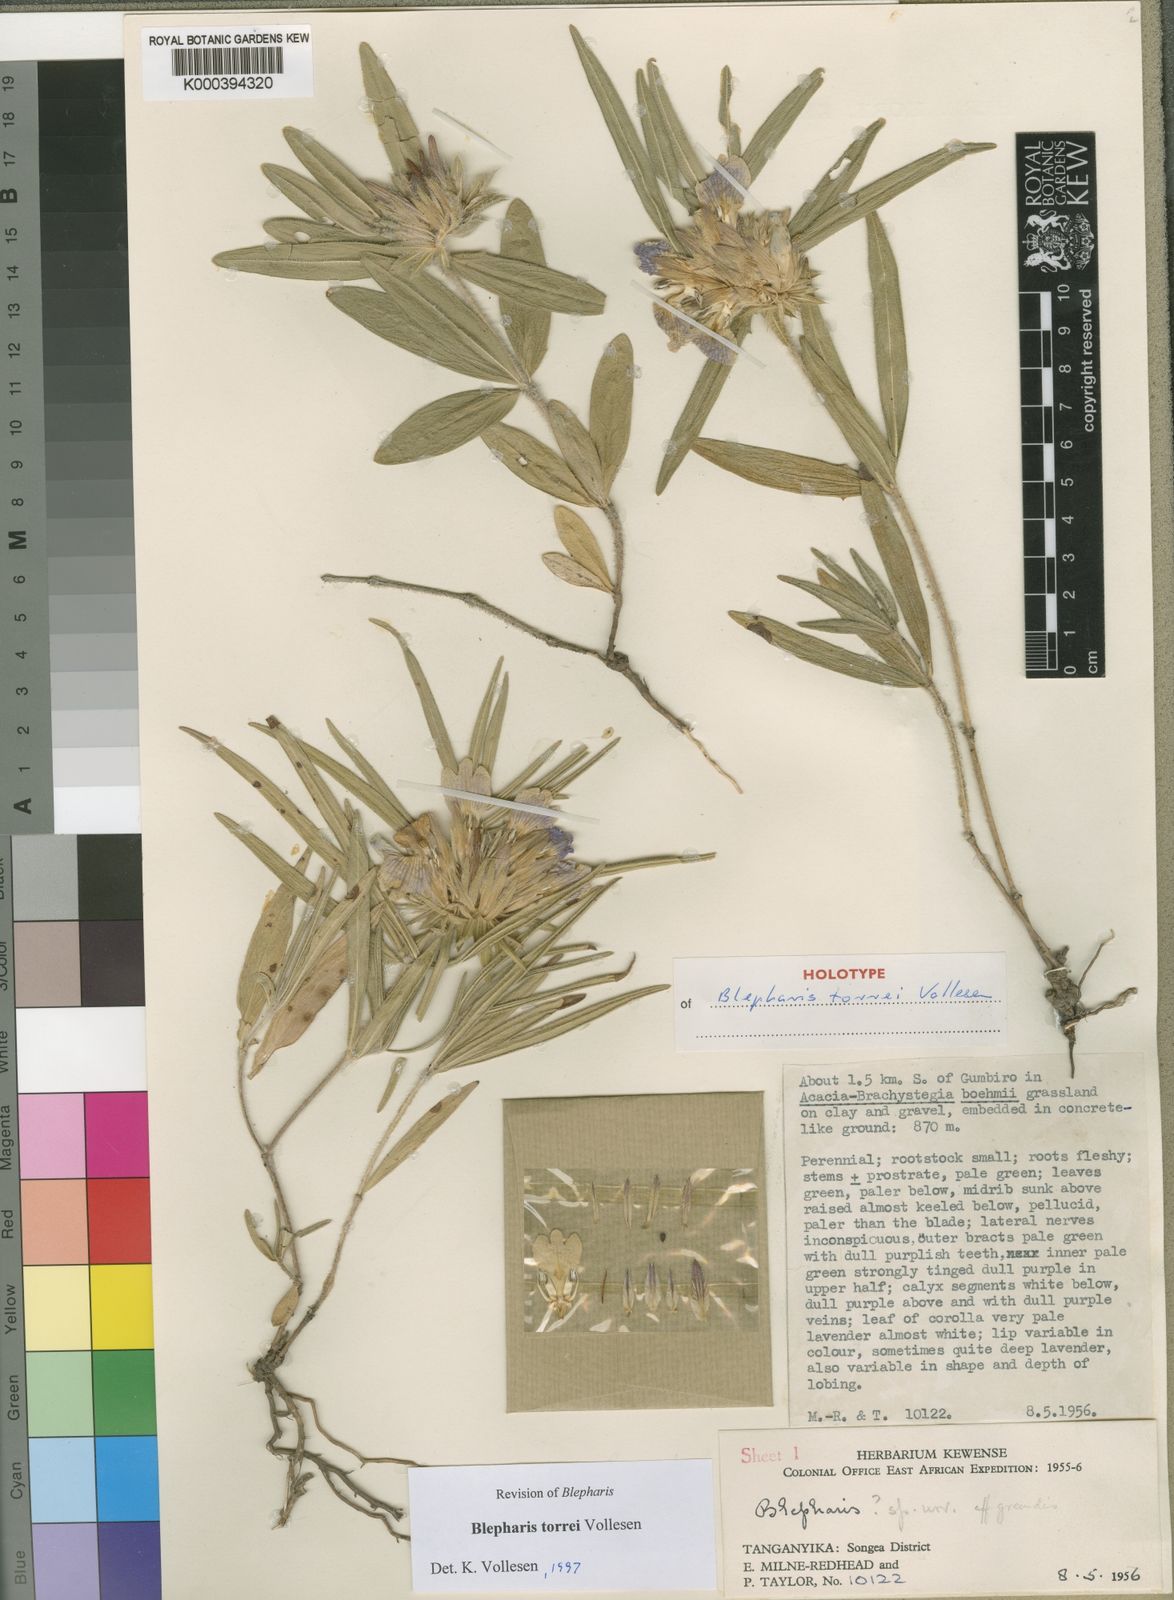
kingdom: Plantae
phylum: Tracheophyta
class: Magnoliopsida
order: Lamiales
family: Acanthaceae
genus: Blepharis
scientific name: Blepharis torrei
